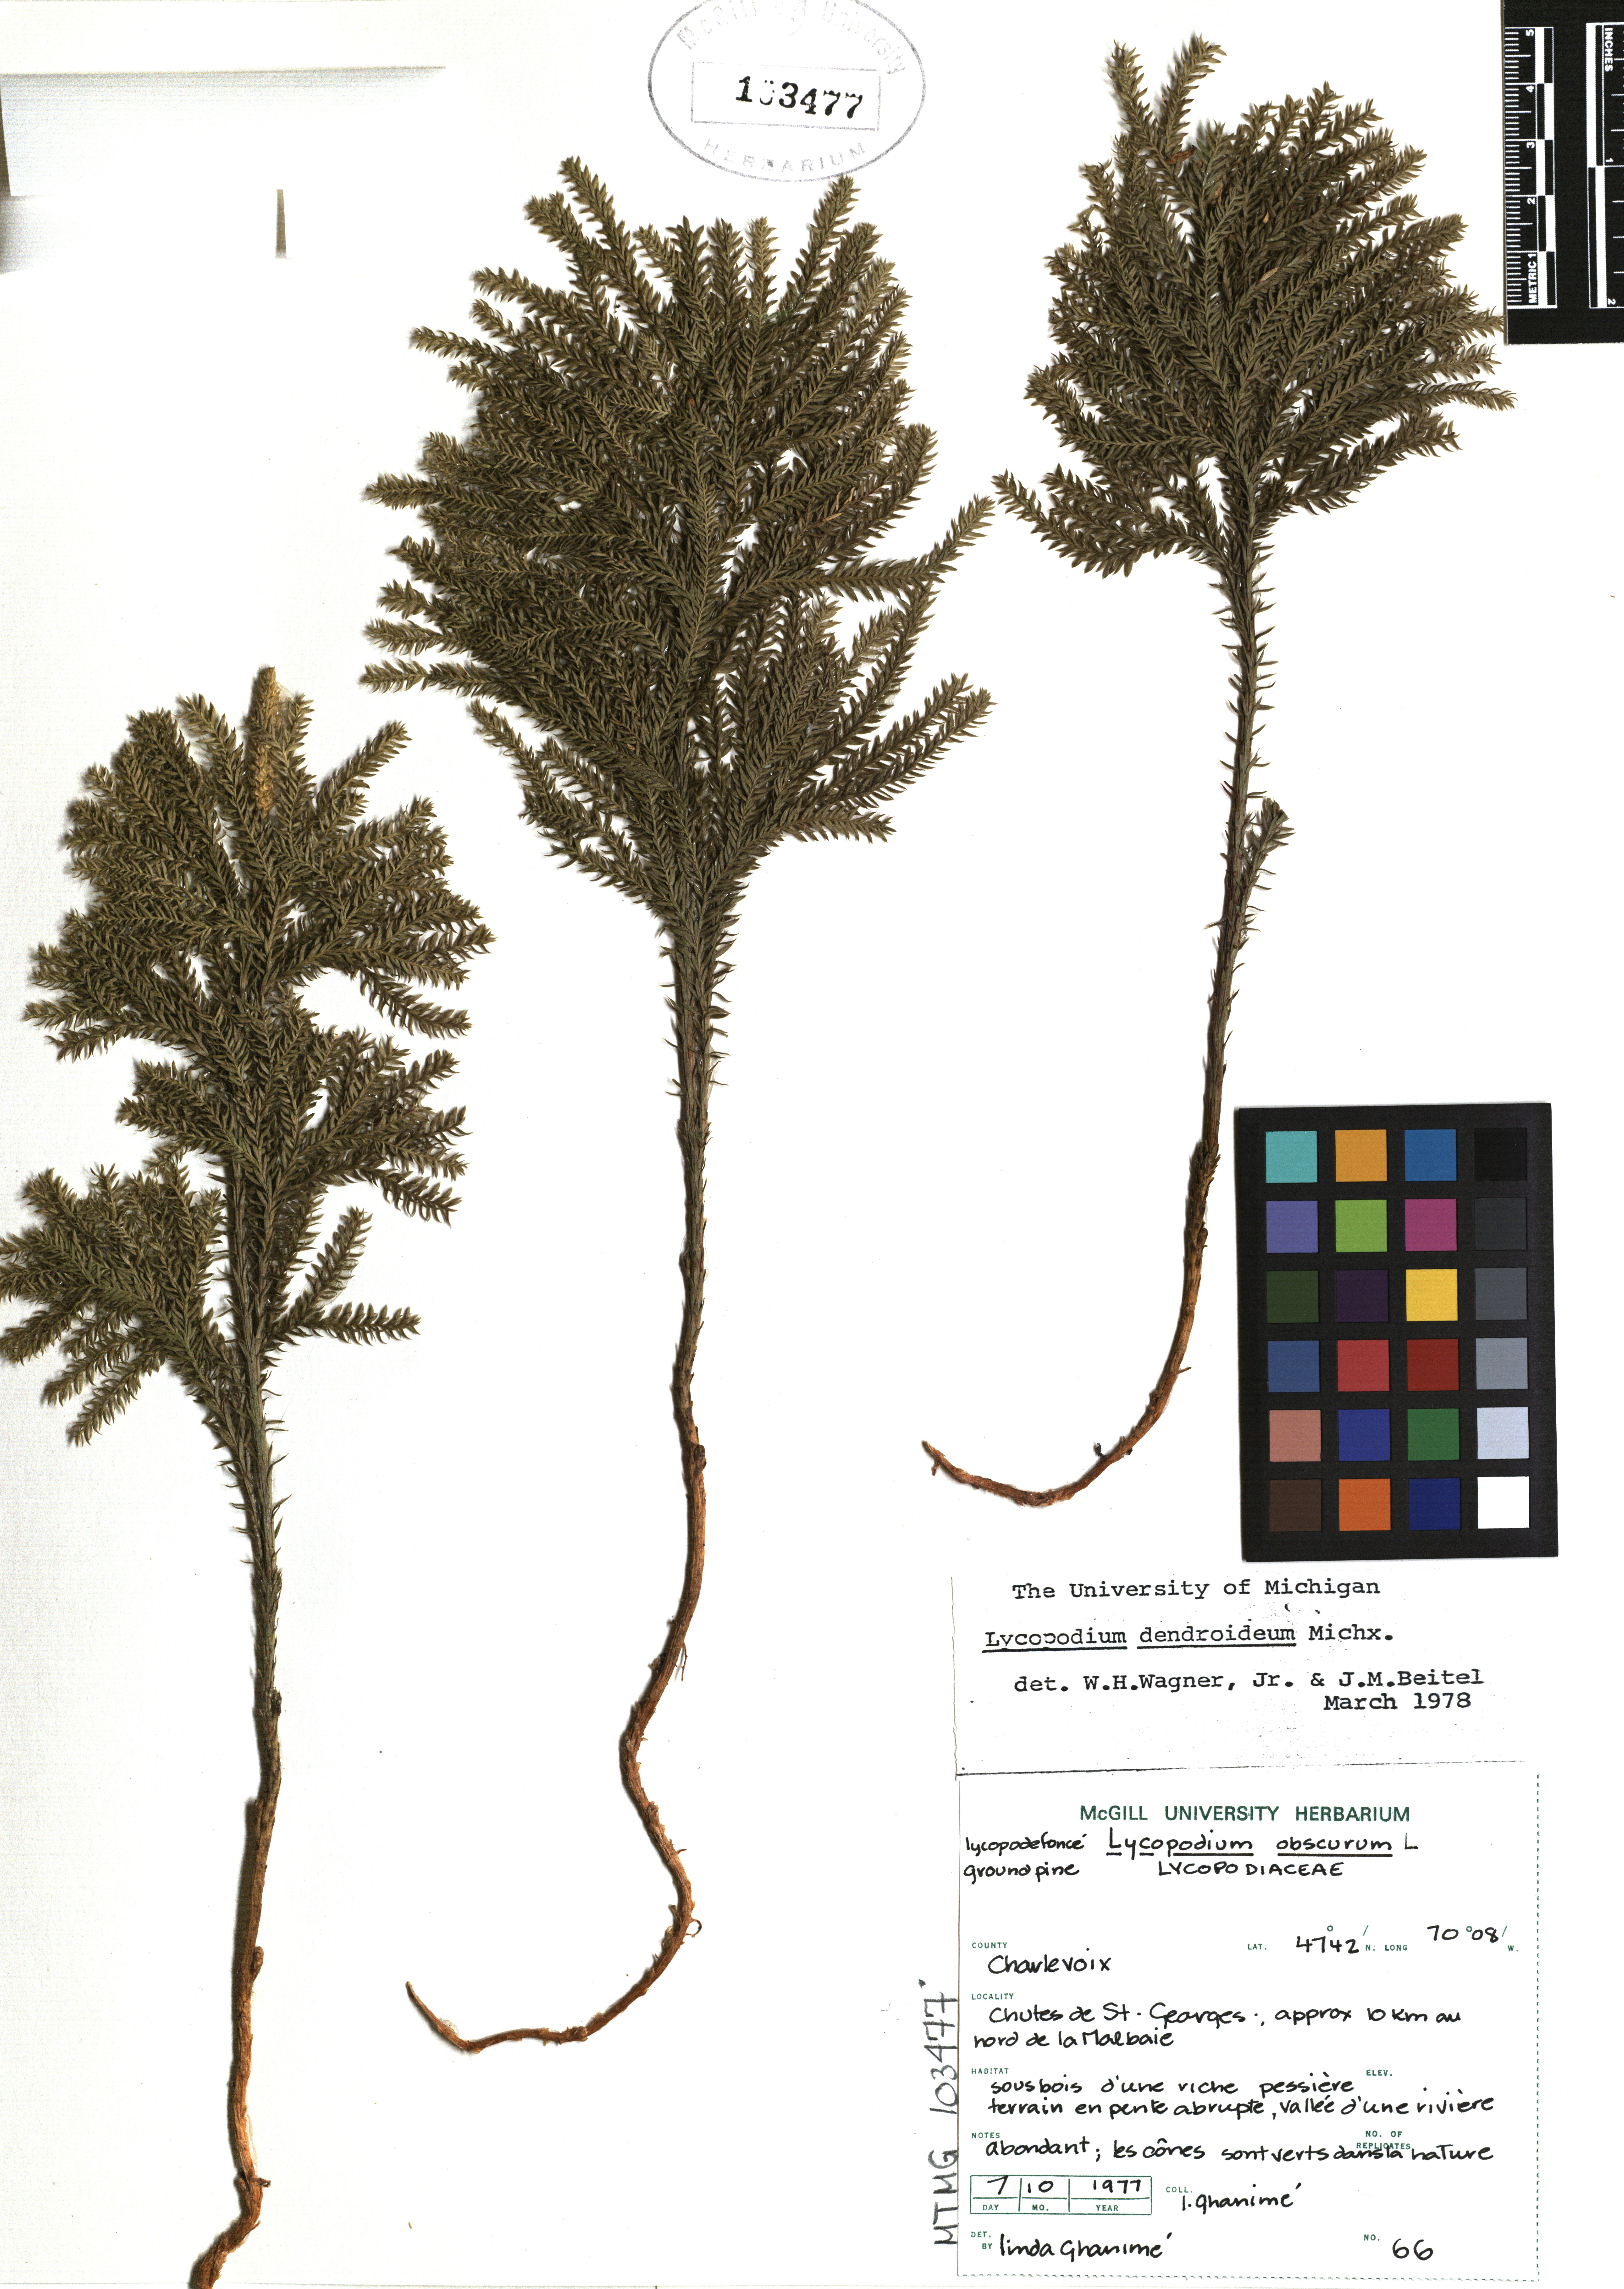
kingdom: Plantae
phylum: Tracheophyta
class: Lycopodiopsida
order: Lycopodiales
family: Lycopodiaceae
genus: Dendrolycopodium
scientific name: Dendrolycopodium dendroideum
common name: Northern tree-clubmoss
